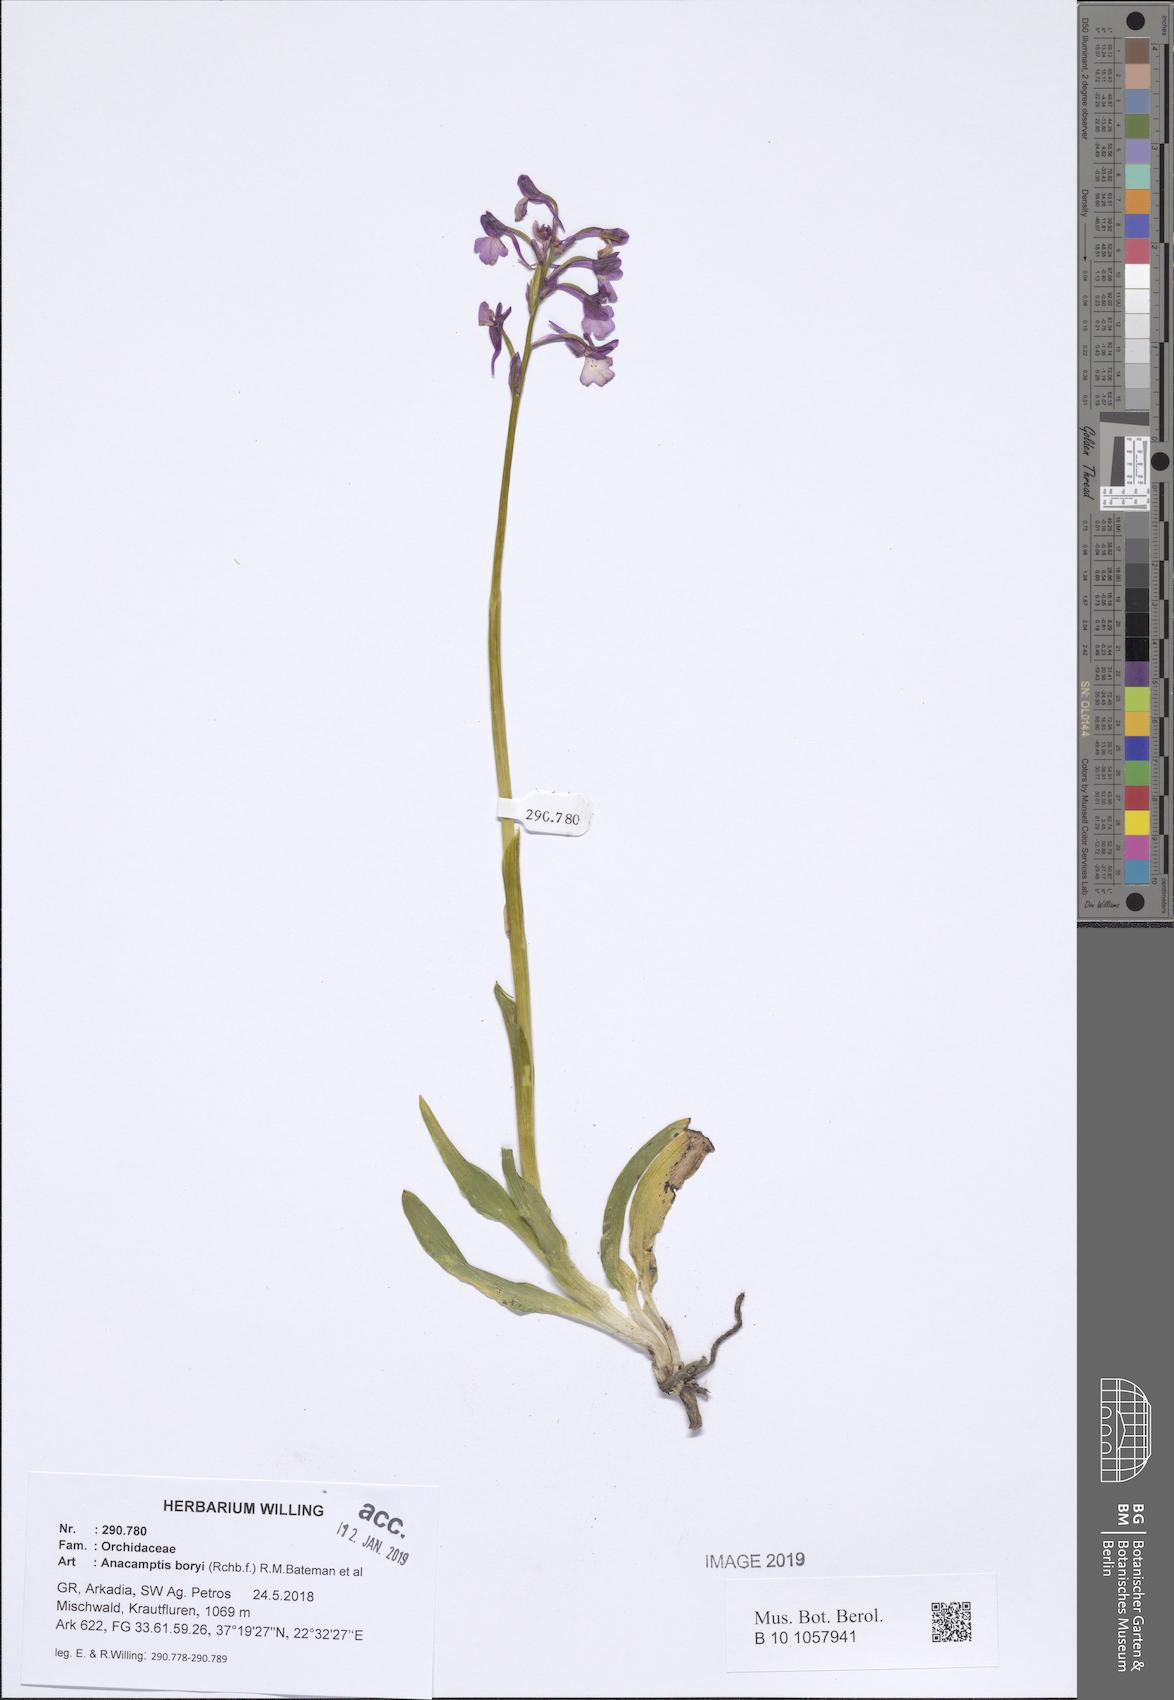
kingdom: Plantae
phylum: Tracheophyta
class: Liliopsida
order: Asparagales
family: Orchidaceae
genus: Anacamptis
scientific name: Anacamptis boryi
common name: Bory's anacamptis
